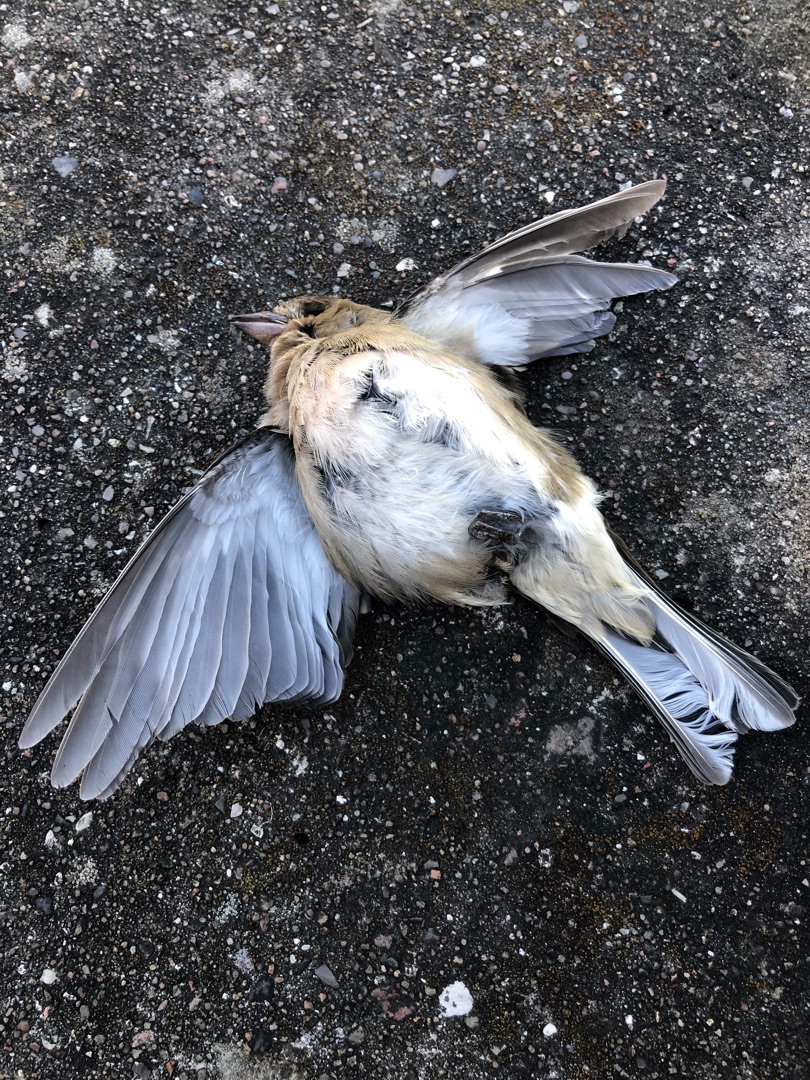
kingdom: Animalia
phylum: Chordata
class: Aves
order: Passeriformes
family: Fringillidae
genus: Fringilla
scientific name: Fringilla coelebs
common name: Bogfinke
